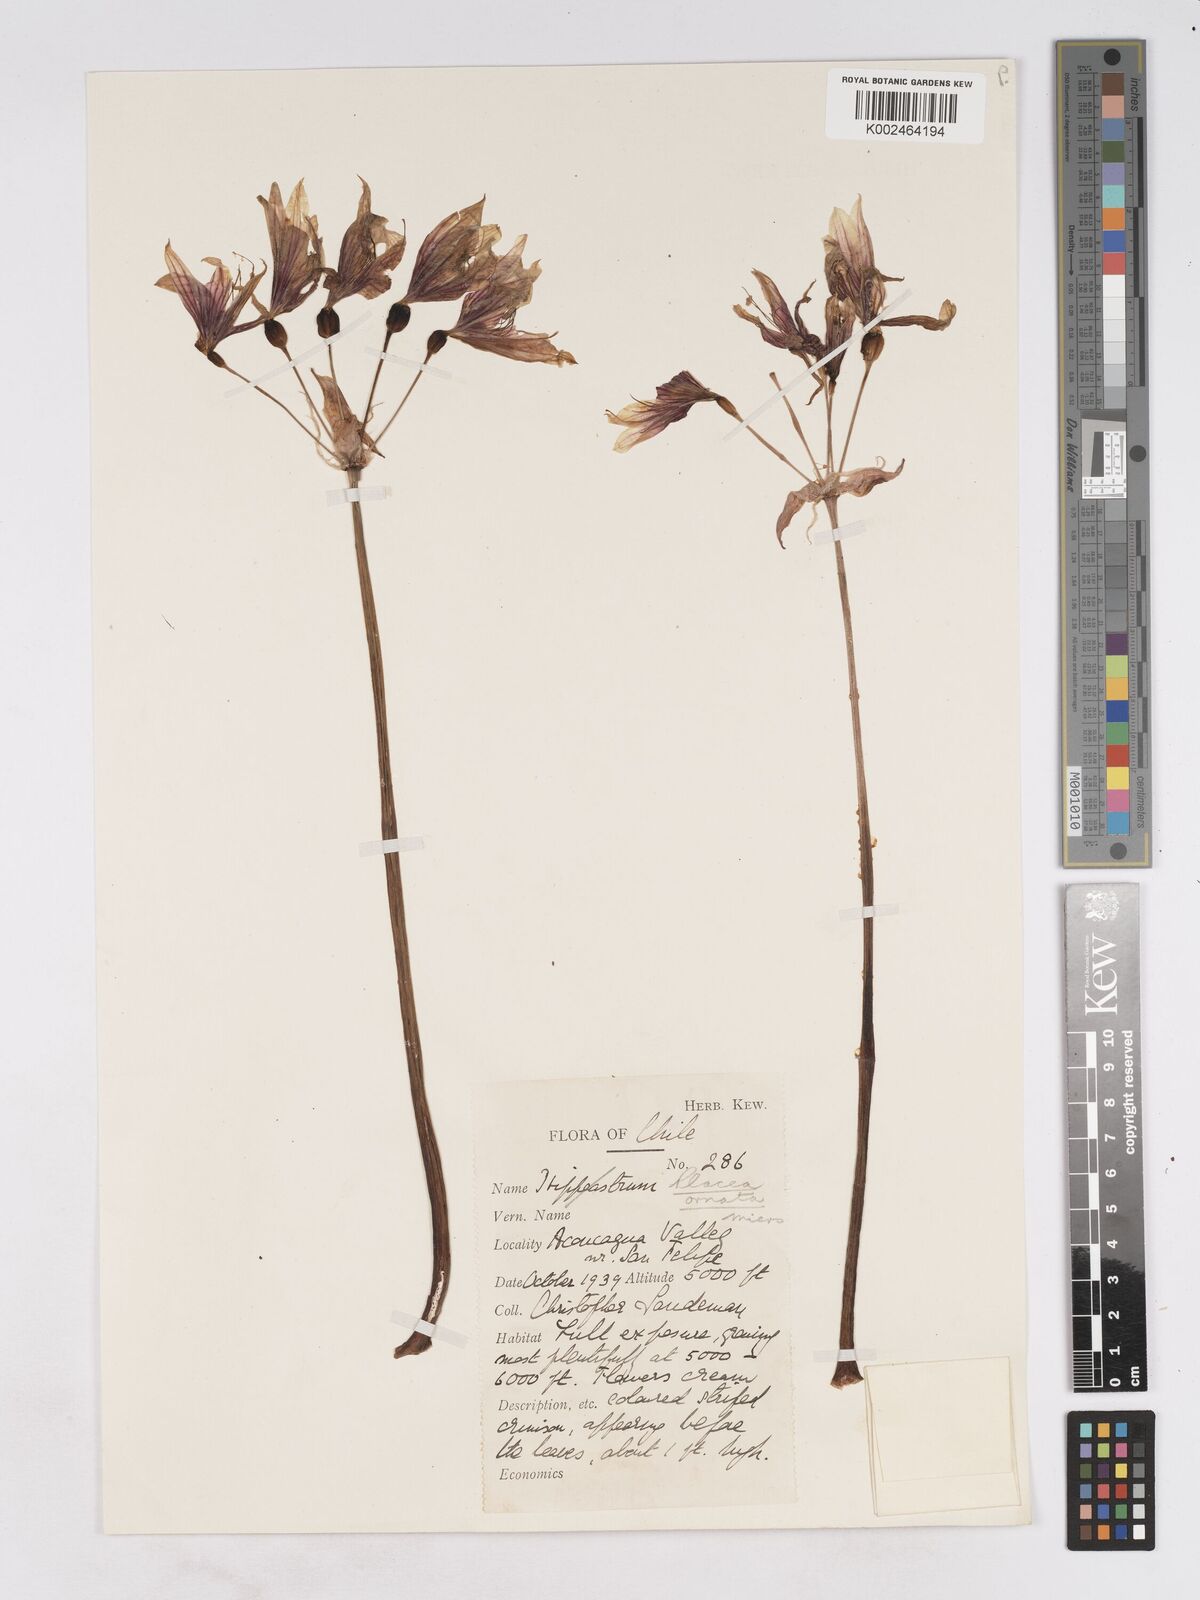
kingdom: Plantae
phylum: Tracheophyta
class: Liliopsida
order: Asparagales
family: Amaryllidaceae
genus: Phycella
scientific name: Phycella ornata
